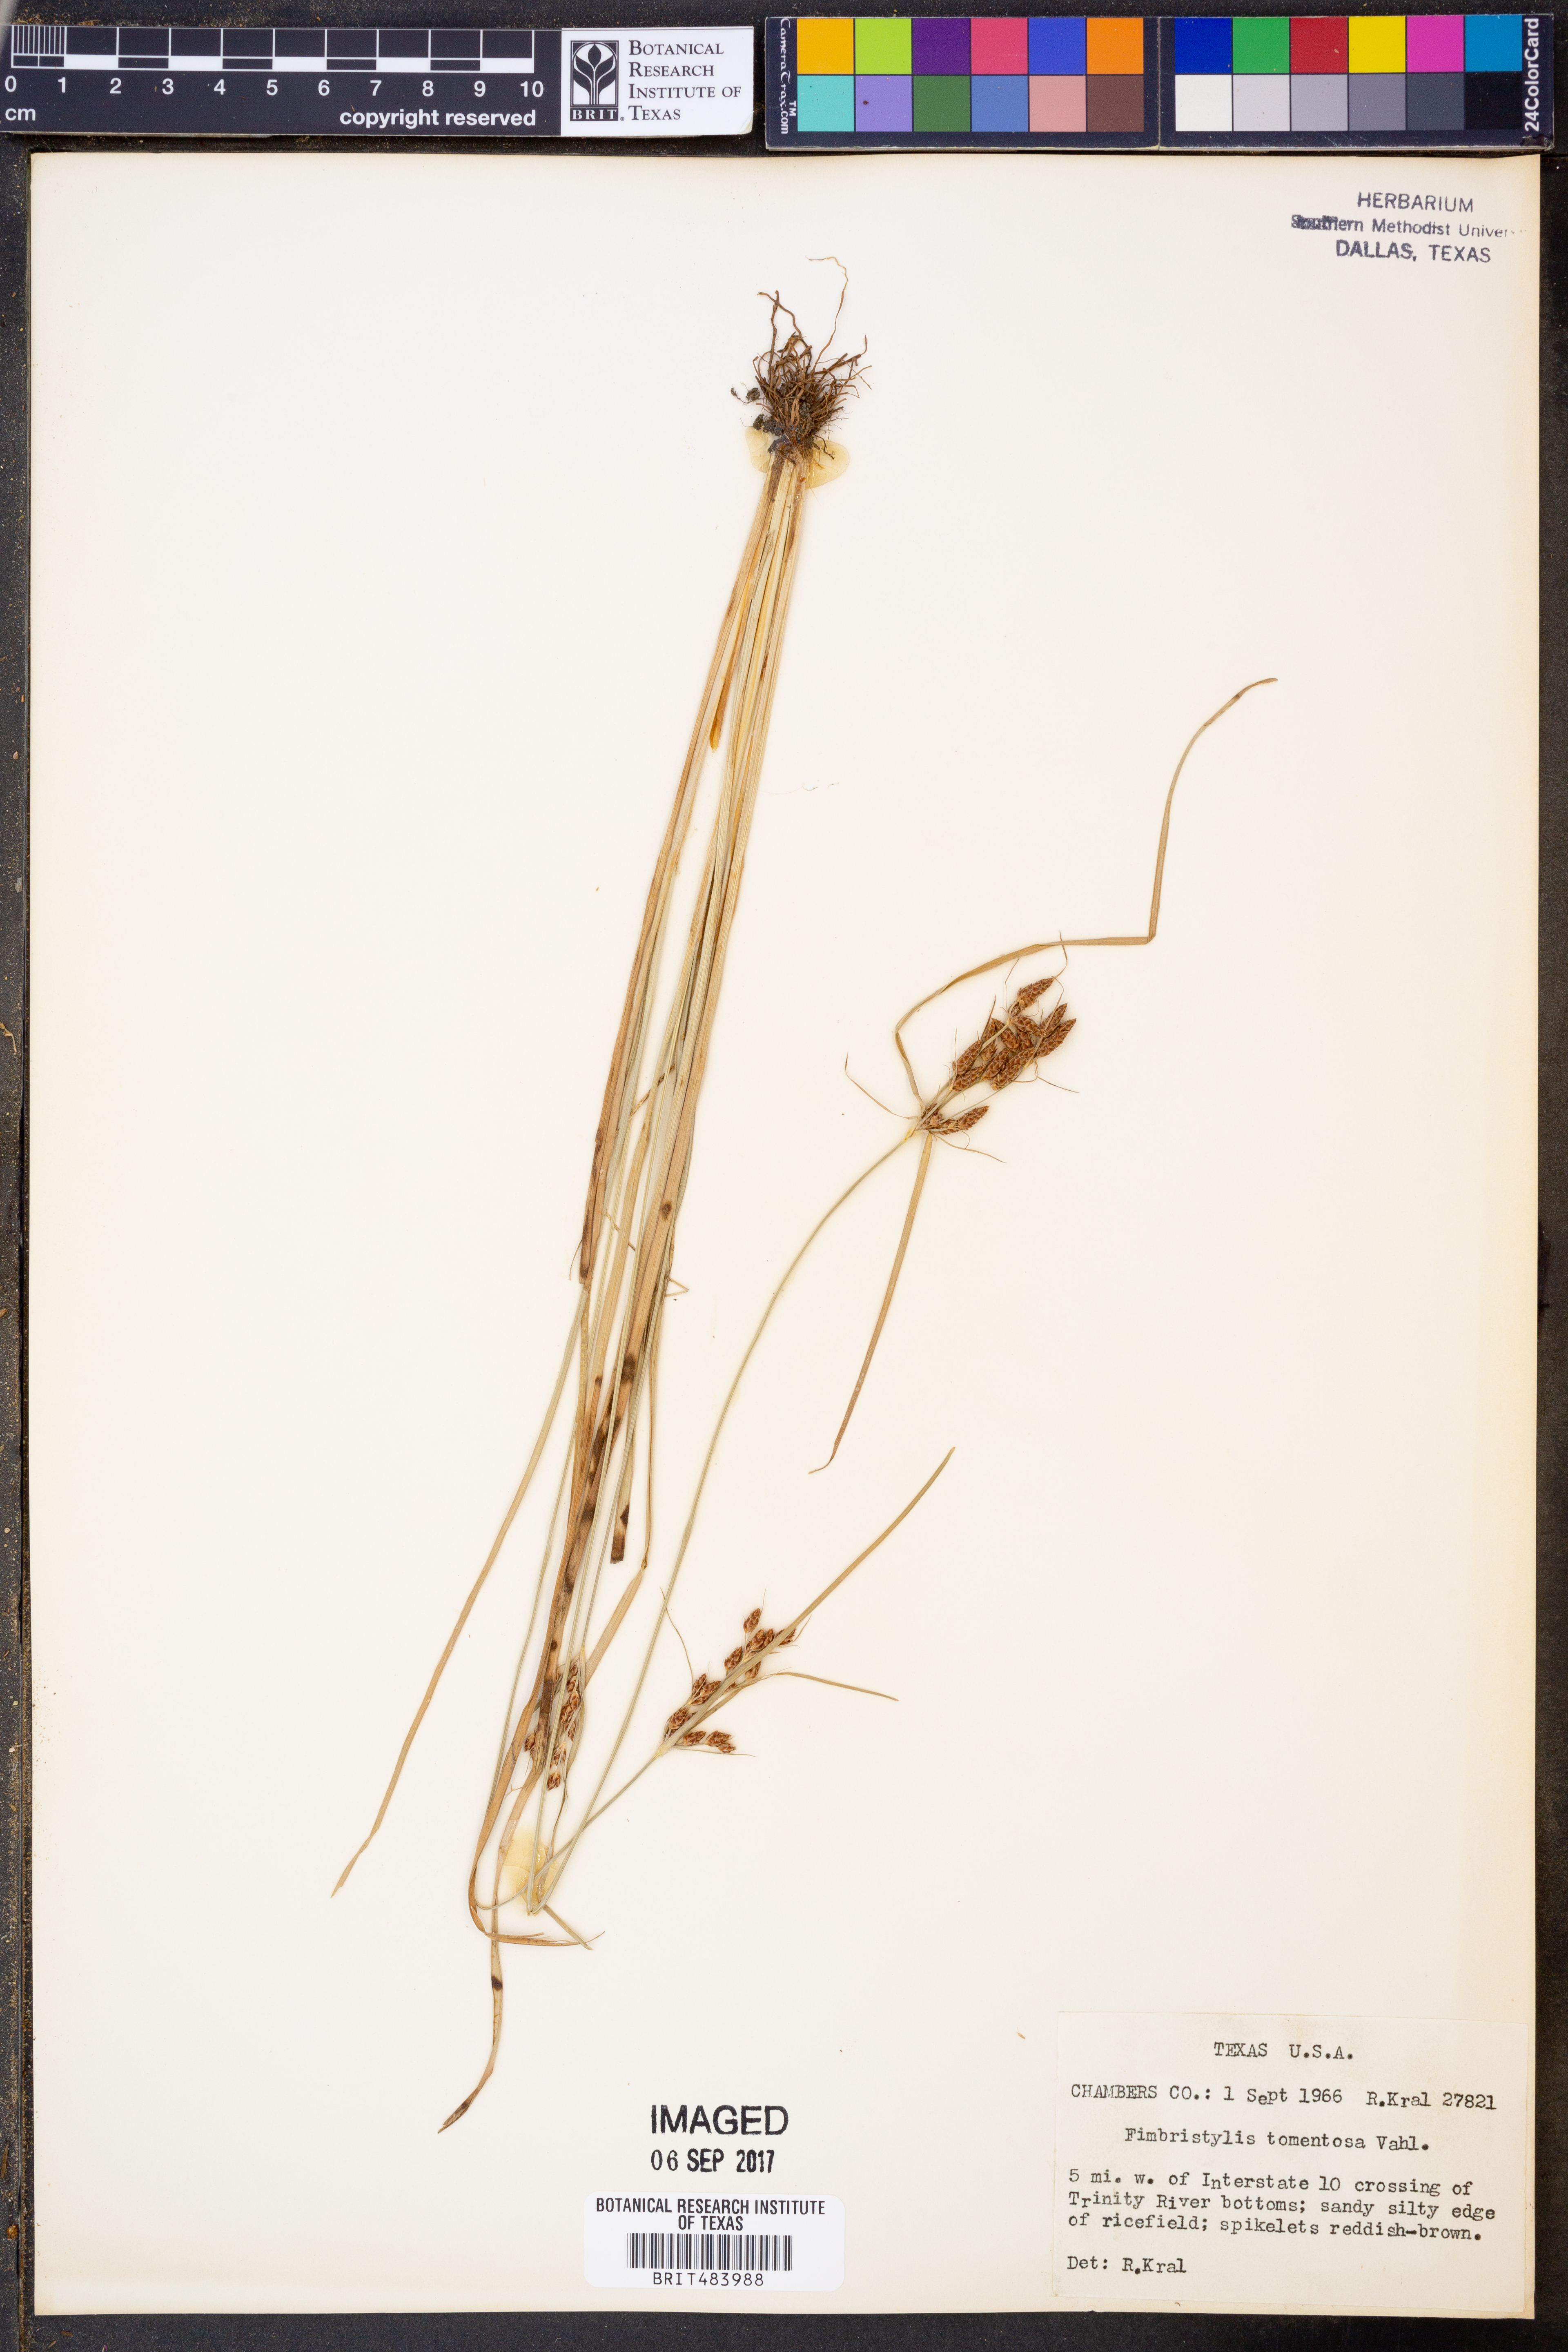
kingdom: Plantae
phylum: Tracheophyta
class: Liliopsida
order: Poales
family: Cyperaceae
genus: Fimbristylis
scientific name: Fimbristylis dichotoma
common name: Forked fimbry
